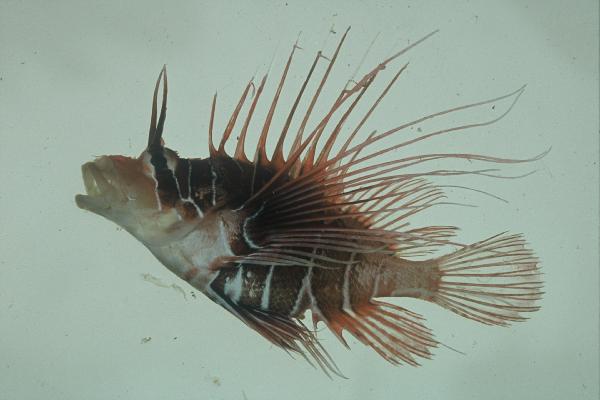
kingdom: Animalia
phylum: Chordata
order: Scorpaeniformes
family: Scorpaenidae
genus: Pterois
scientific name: Pterois radiata
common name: Radial firefish
